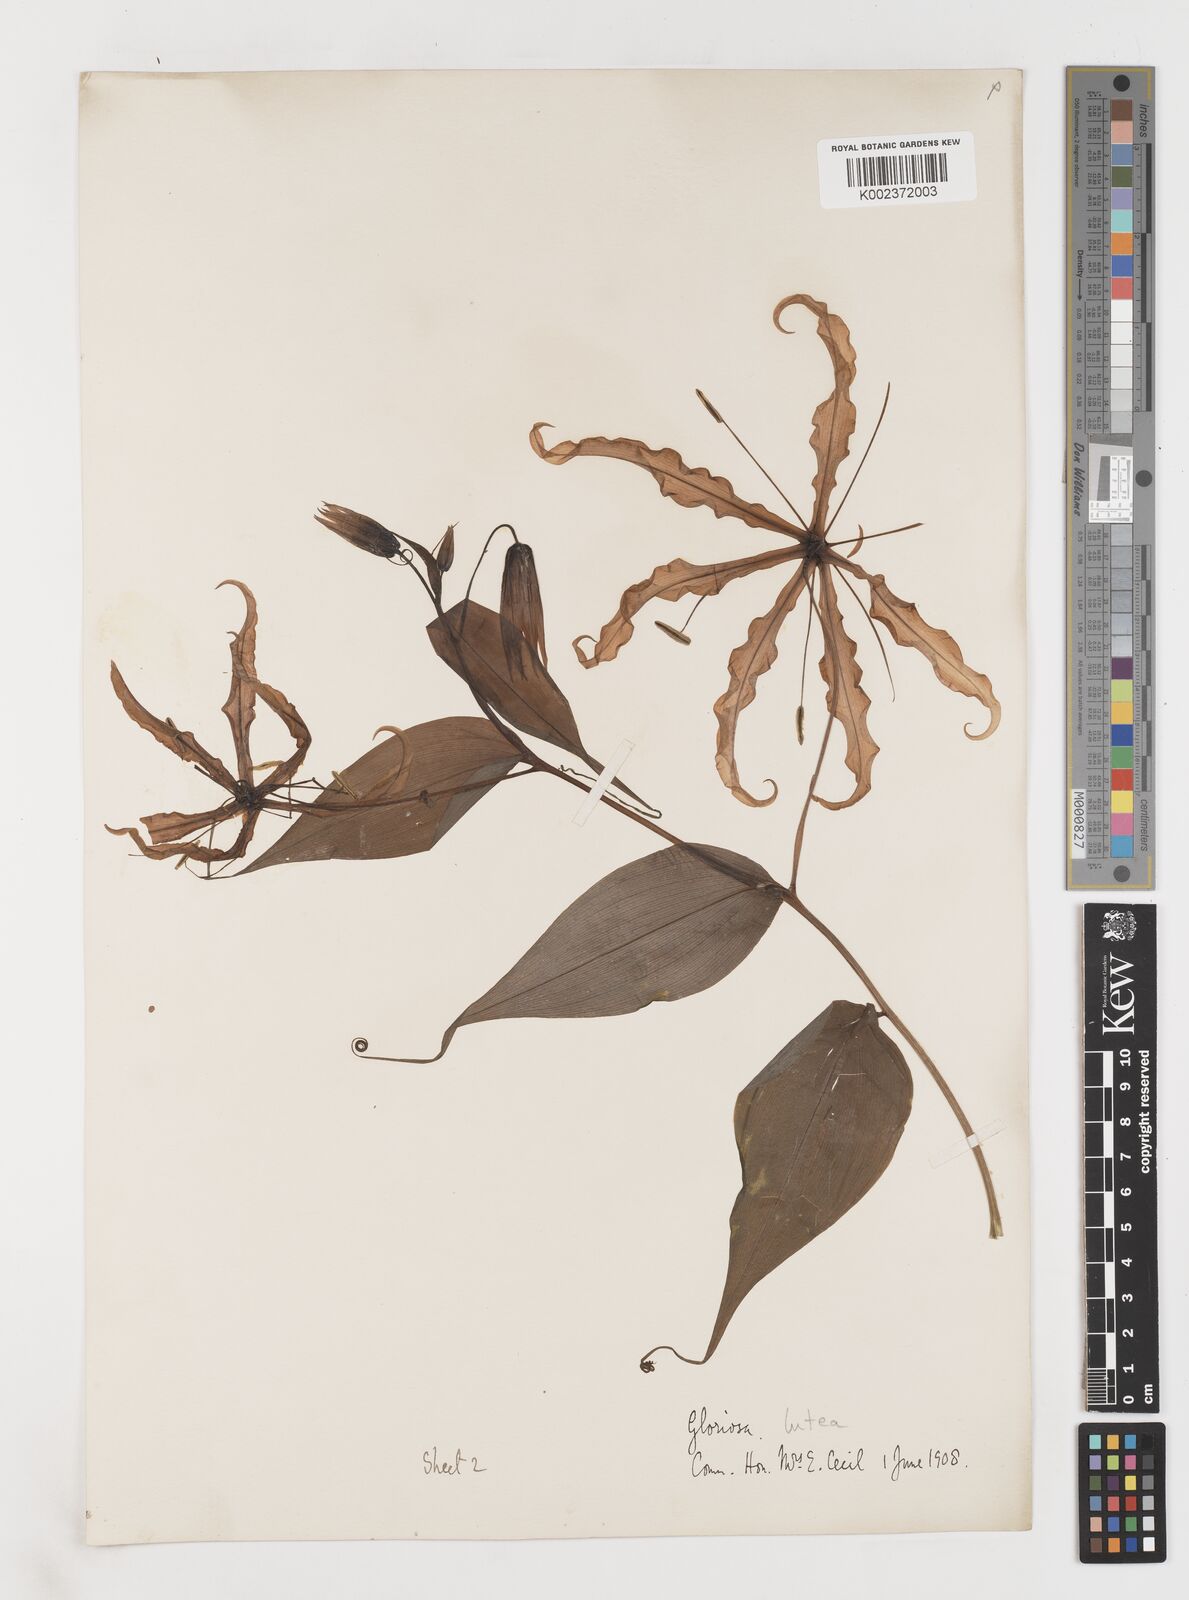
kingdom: Plantae
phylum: Tracheophyta
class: Liliopsida
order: Liliales
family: Colchicaceae
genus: Gloriosa
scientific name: Gloriosa superba
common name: Flame lily
